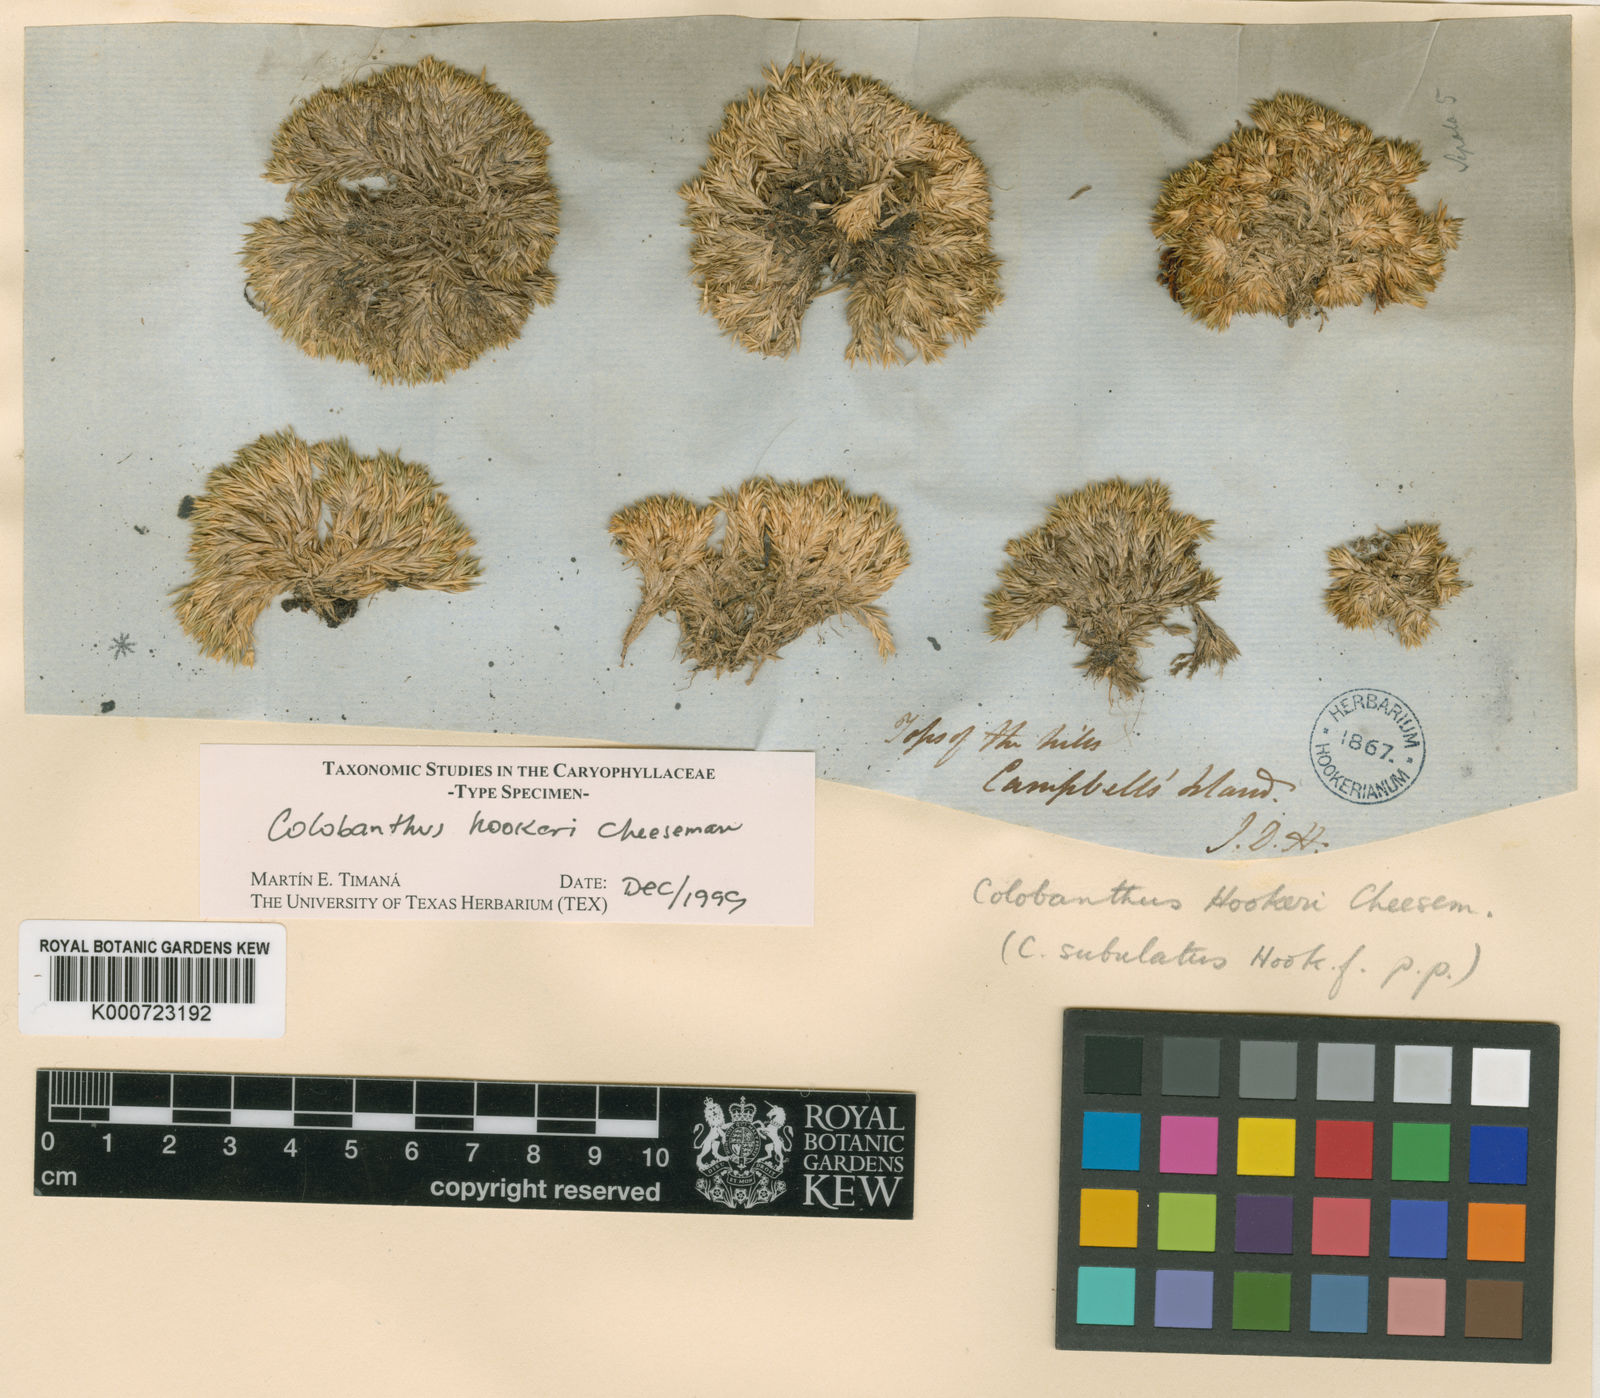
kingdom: Plantae
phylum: Tracheophyta
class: Magnoliopsida
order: Caryophyllales
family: Caryophyllaceae
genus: Colobanthus
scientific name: Colobanthus hookeri
